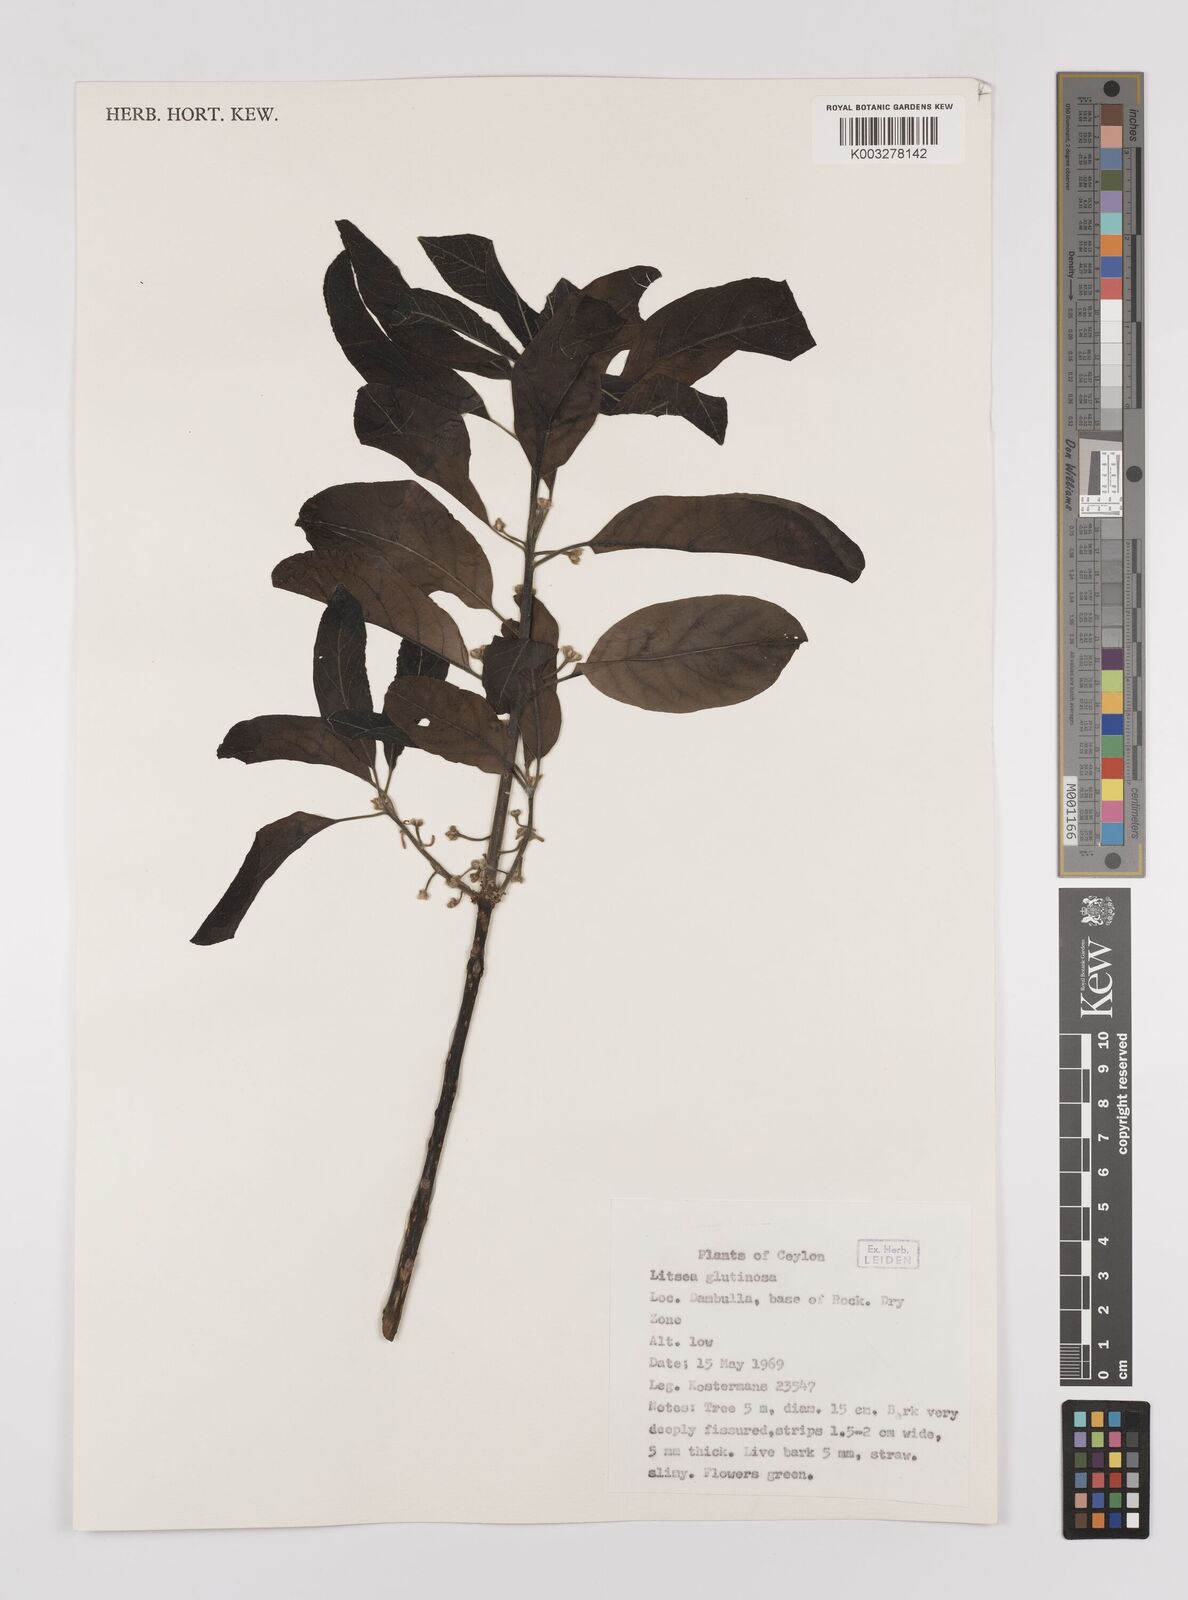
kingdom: Plantae
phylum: Tracheophyta
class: Magnoliopsida
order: Laurales
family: Lauraceae
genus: Litsea
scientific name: Litsea
